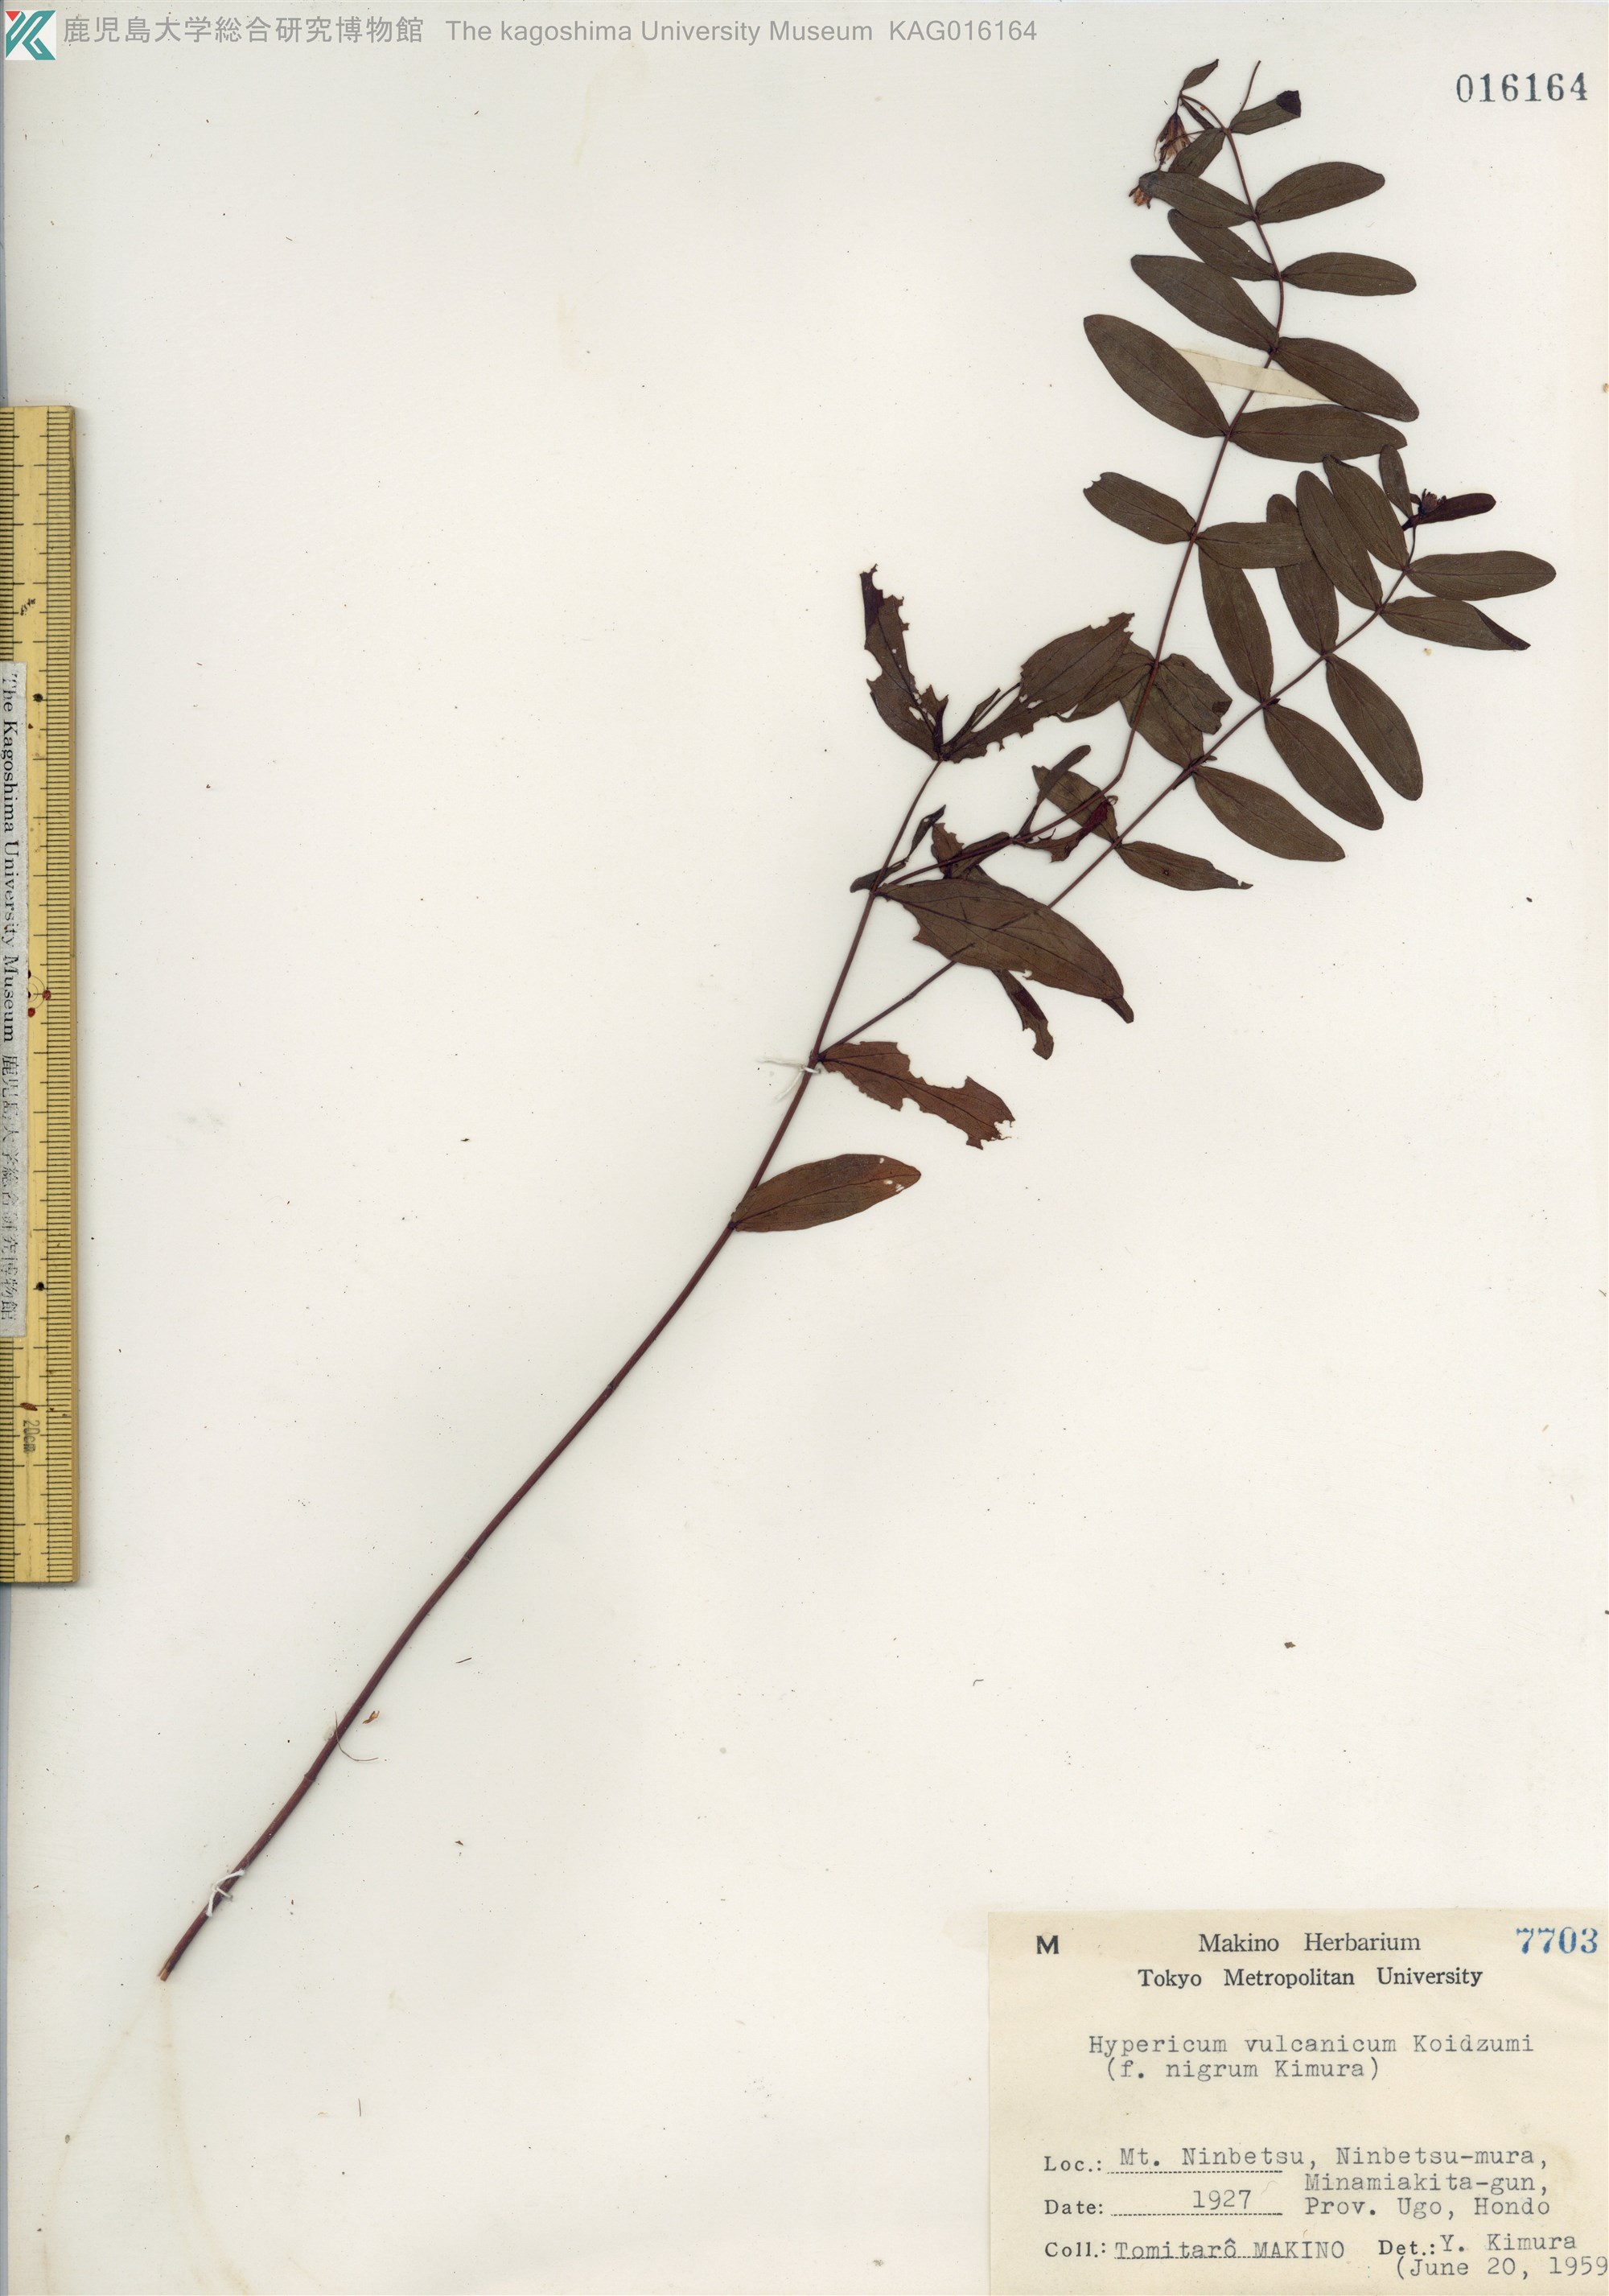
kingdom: Plantae
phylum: Tracheophyta
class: Magnoliopsida
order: Malpighiales
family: Hypericaceae
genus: Hypericum
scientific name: Hypericum vulcanicum
